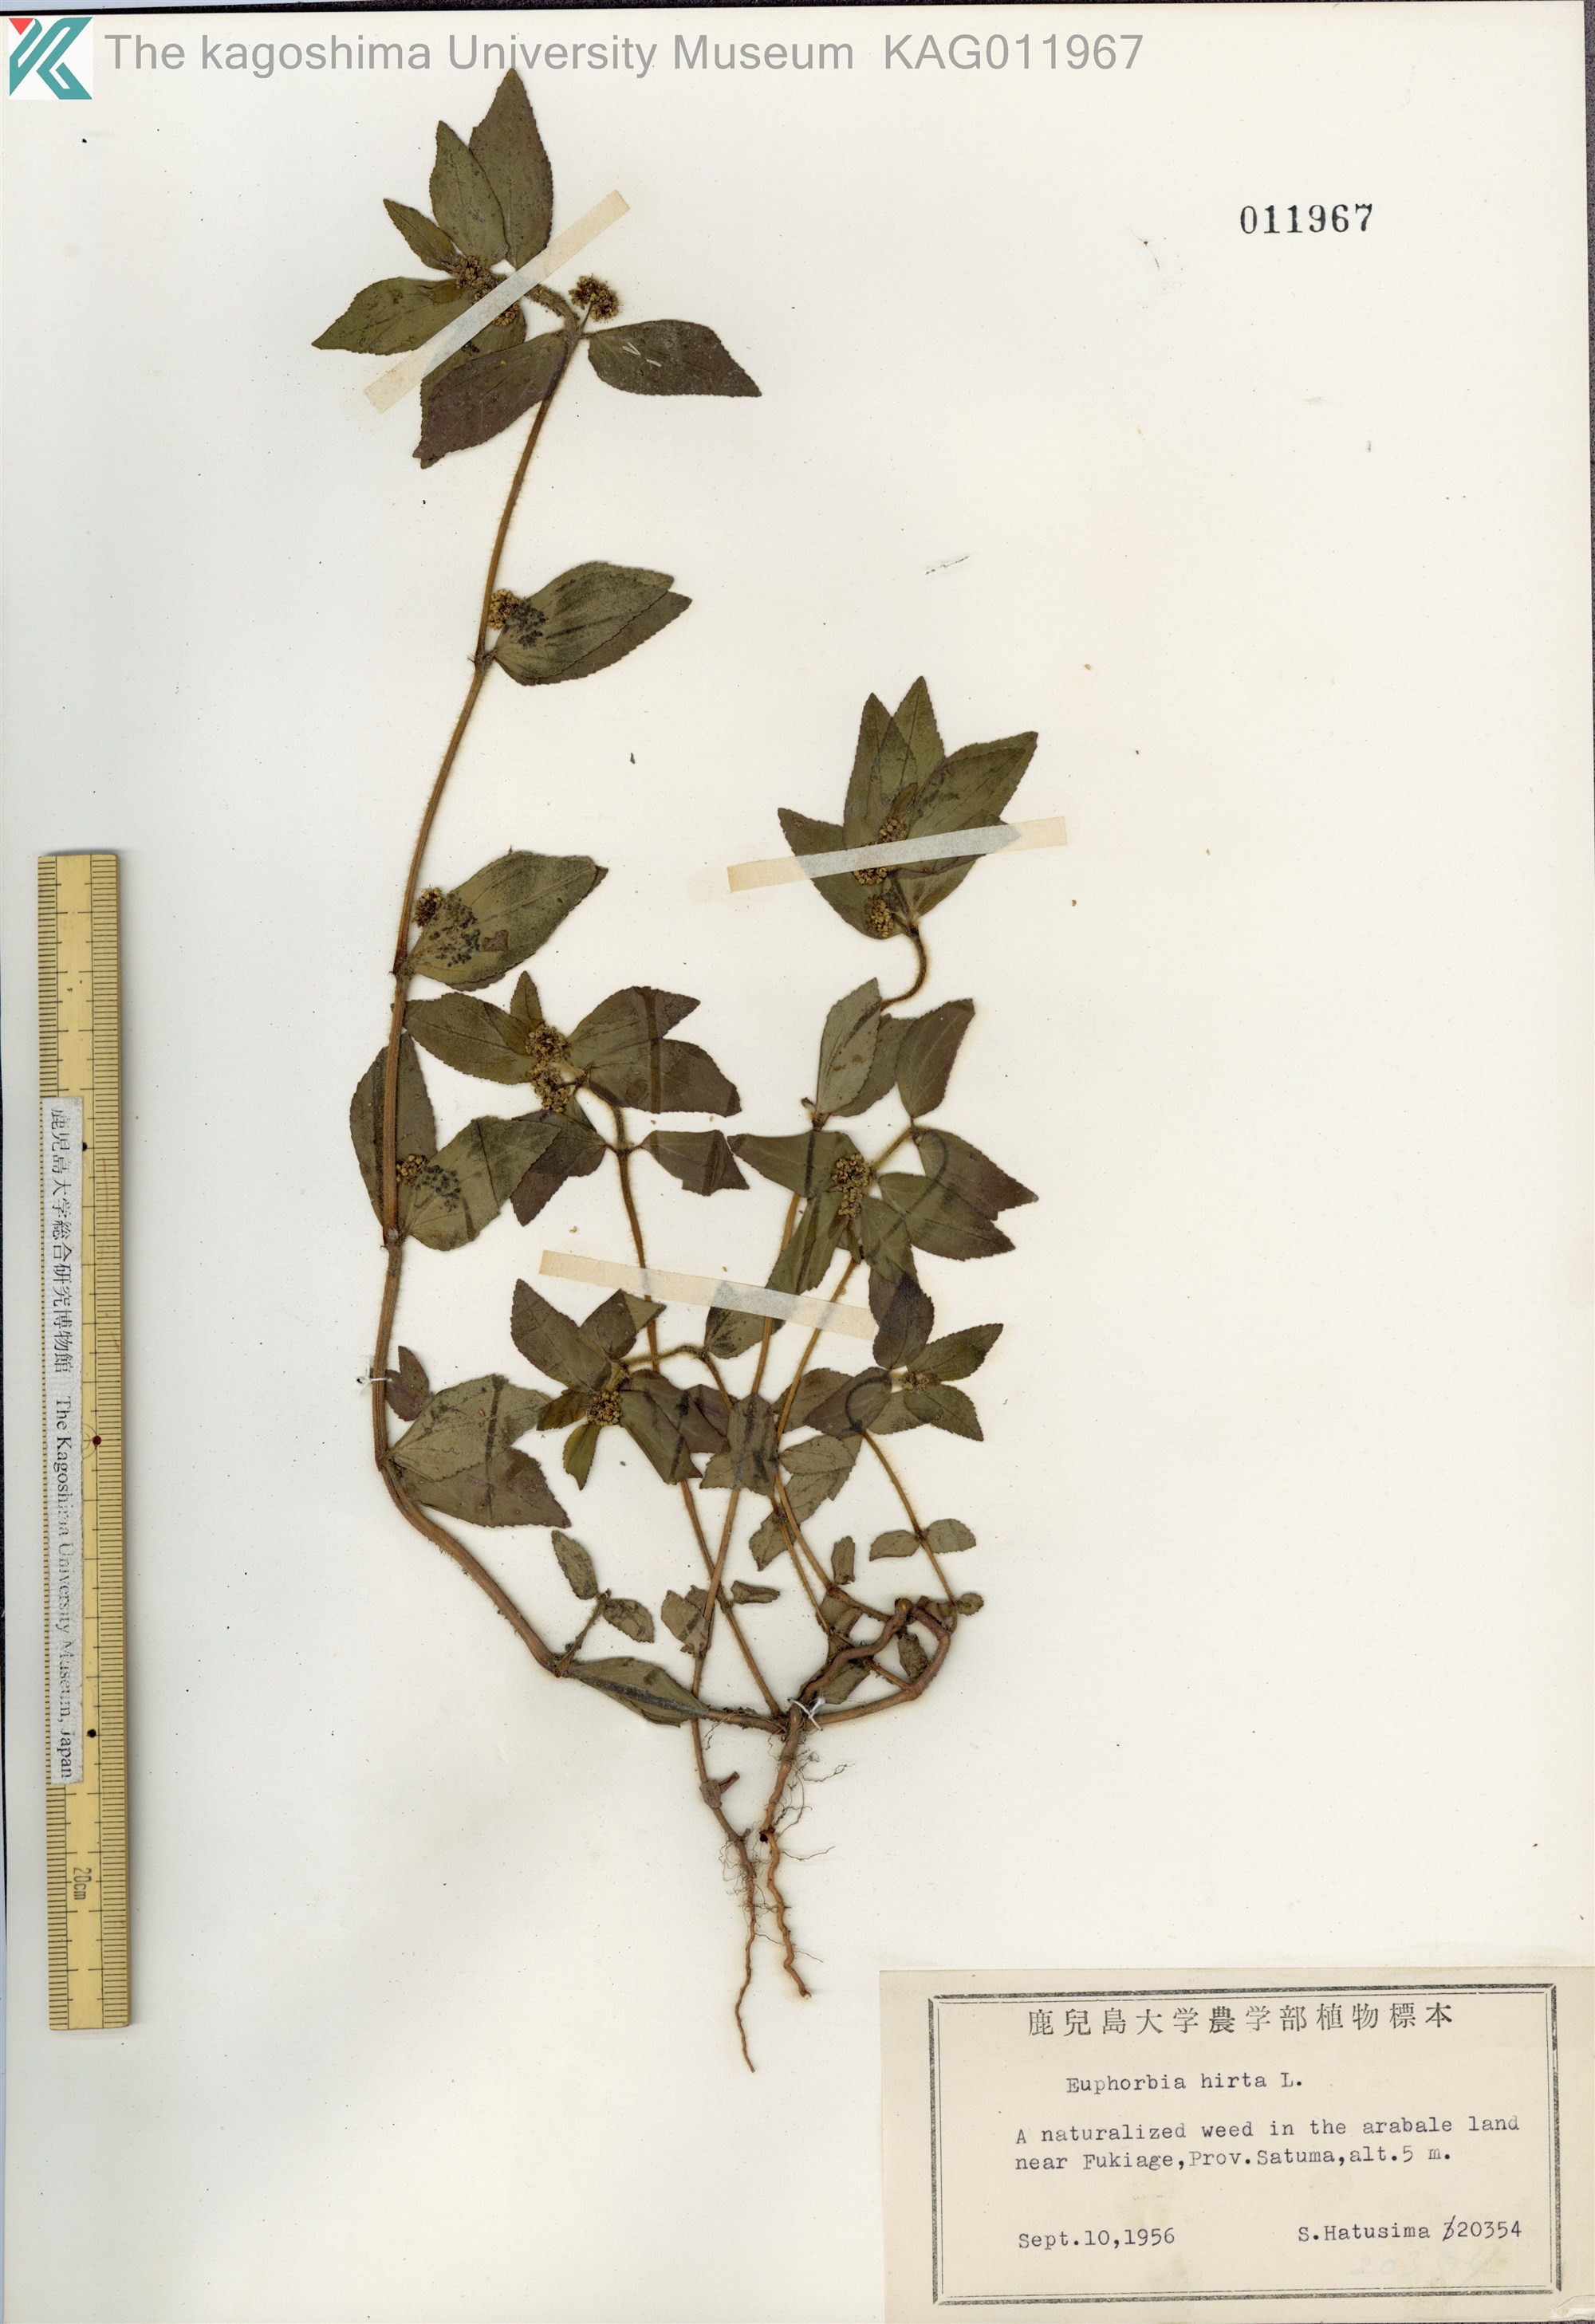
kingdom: Plantae
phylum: Tracheophyta
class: Magnoliopsida
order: Malpighiales
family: Euphorbiaceae
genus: Euphorbia
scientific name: Euphorbia hirta
